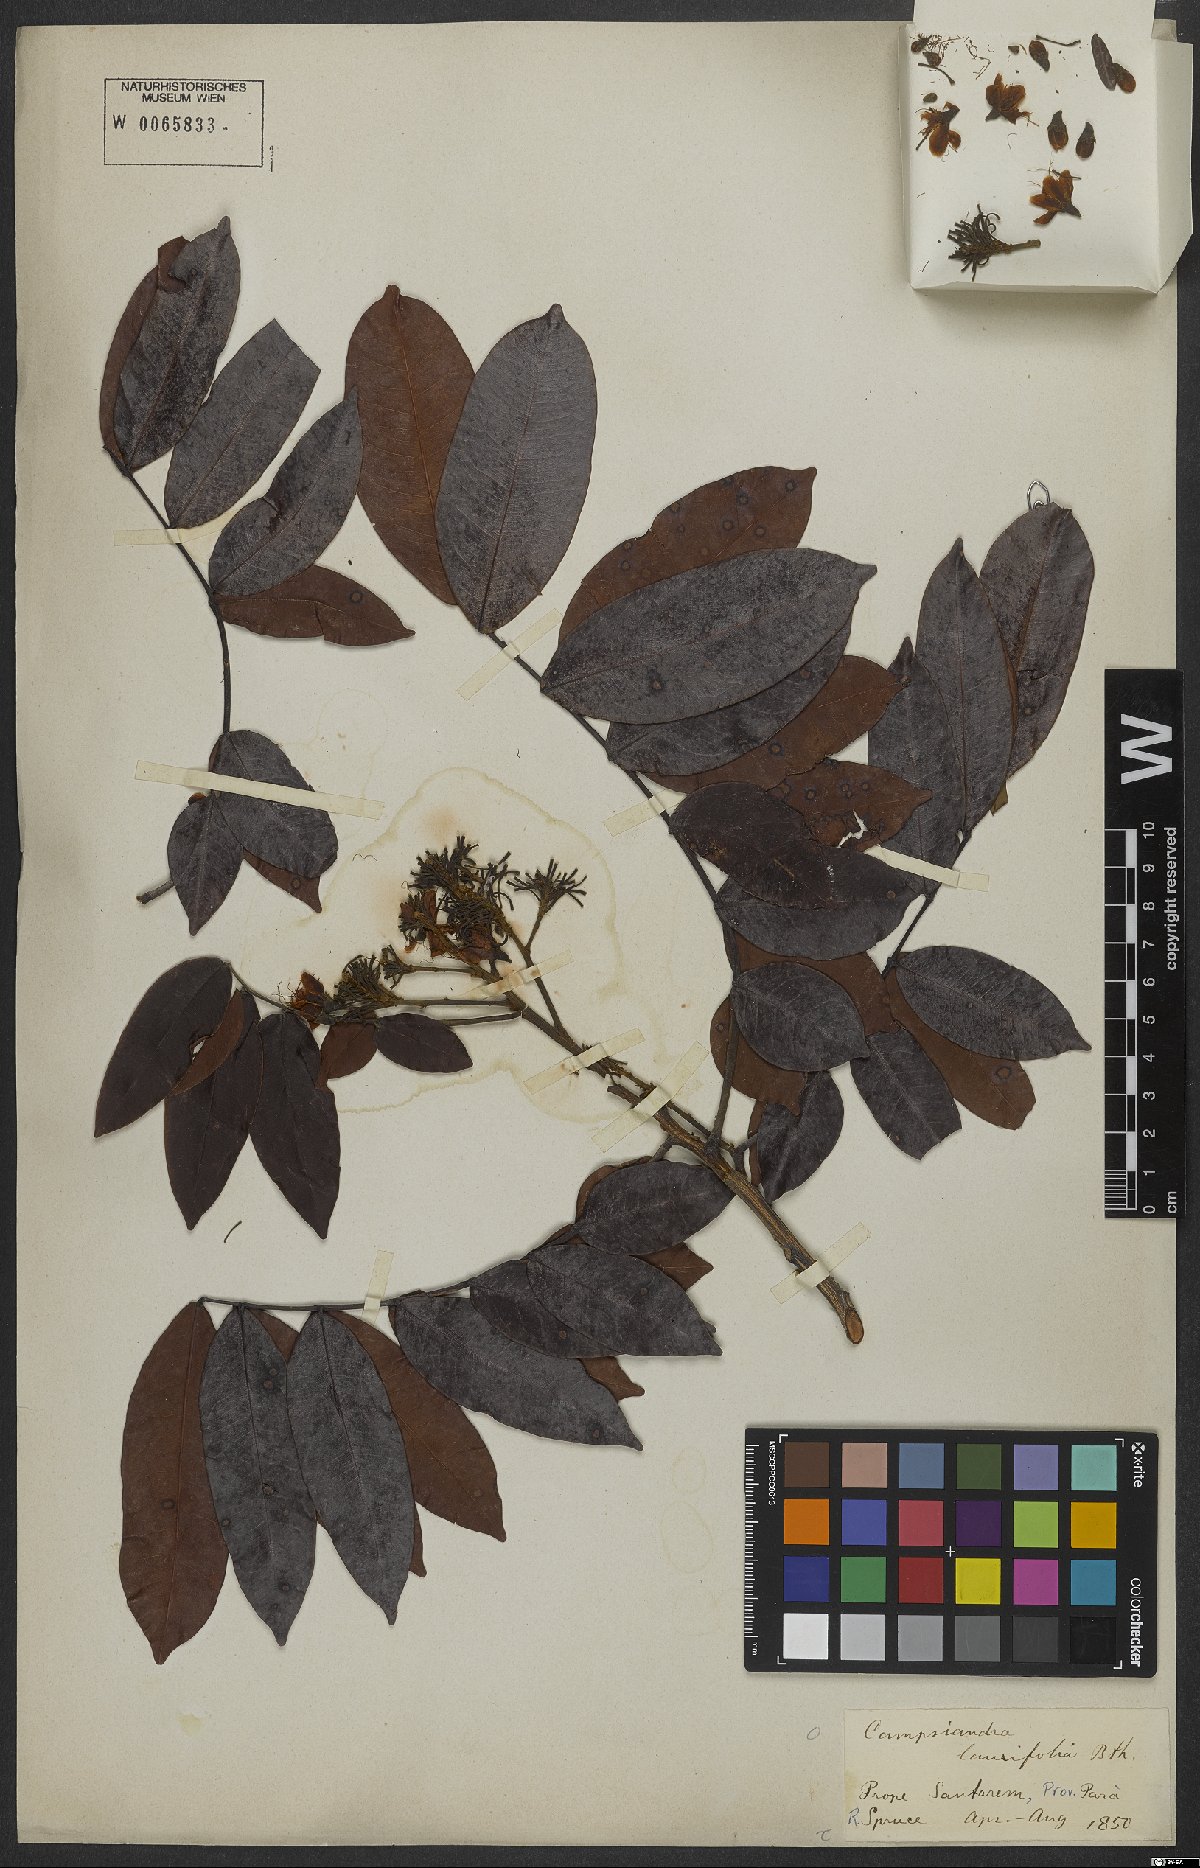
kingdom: Plantae
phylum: Tracheophyta
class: Magnoliopsida
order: Fabales
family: Fabaceae
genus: Campsiandra
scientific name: Campsiandra laurifolia
